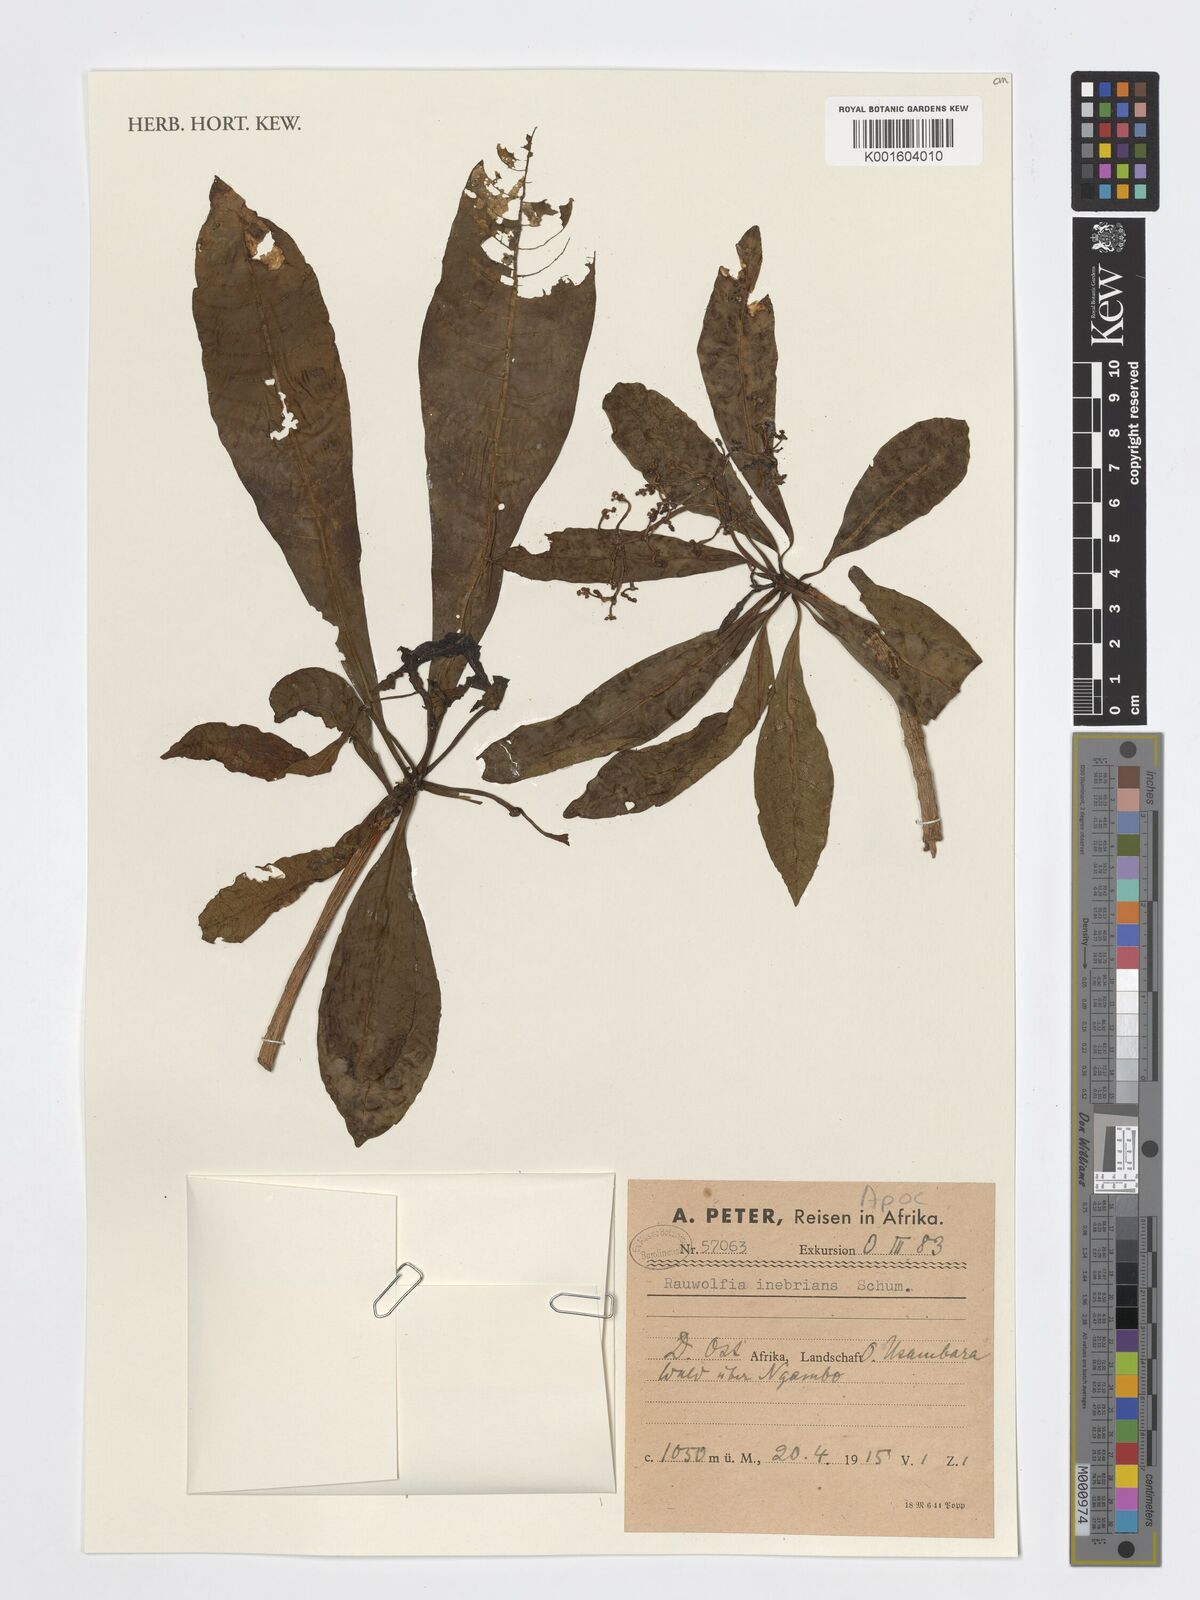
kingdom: Plantae
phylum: Tracheophyta
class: Magnoliopsida
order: Gentianales
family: Apocynaceae
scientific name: Apocynaceae
